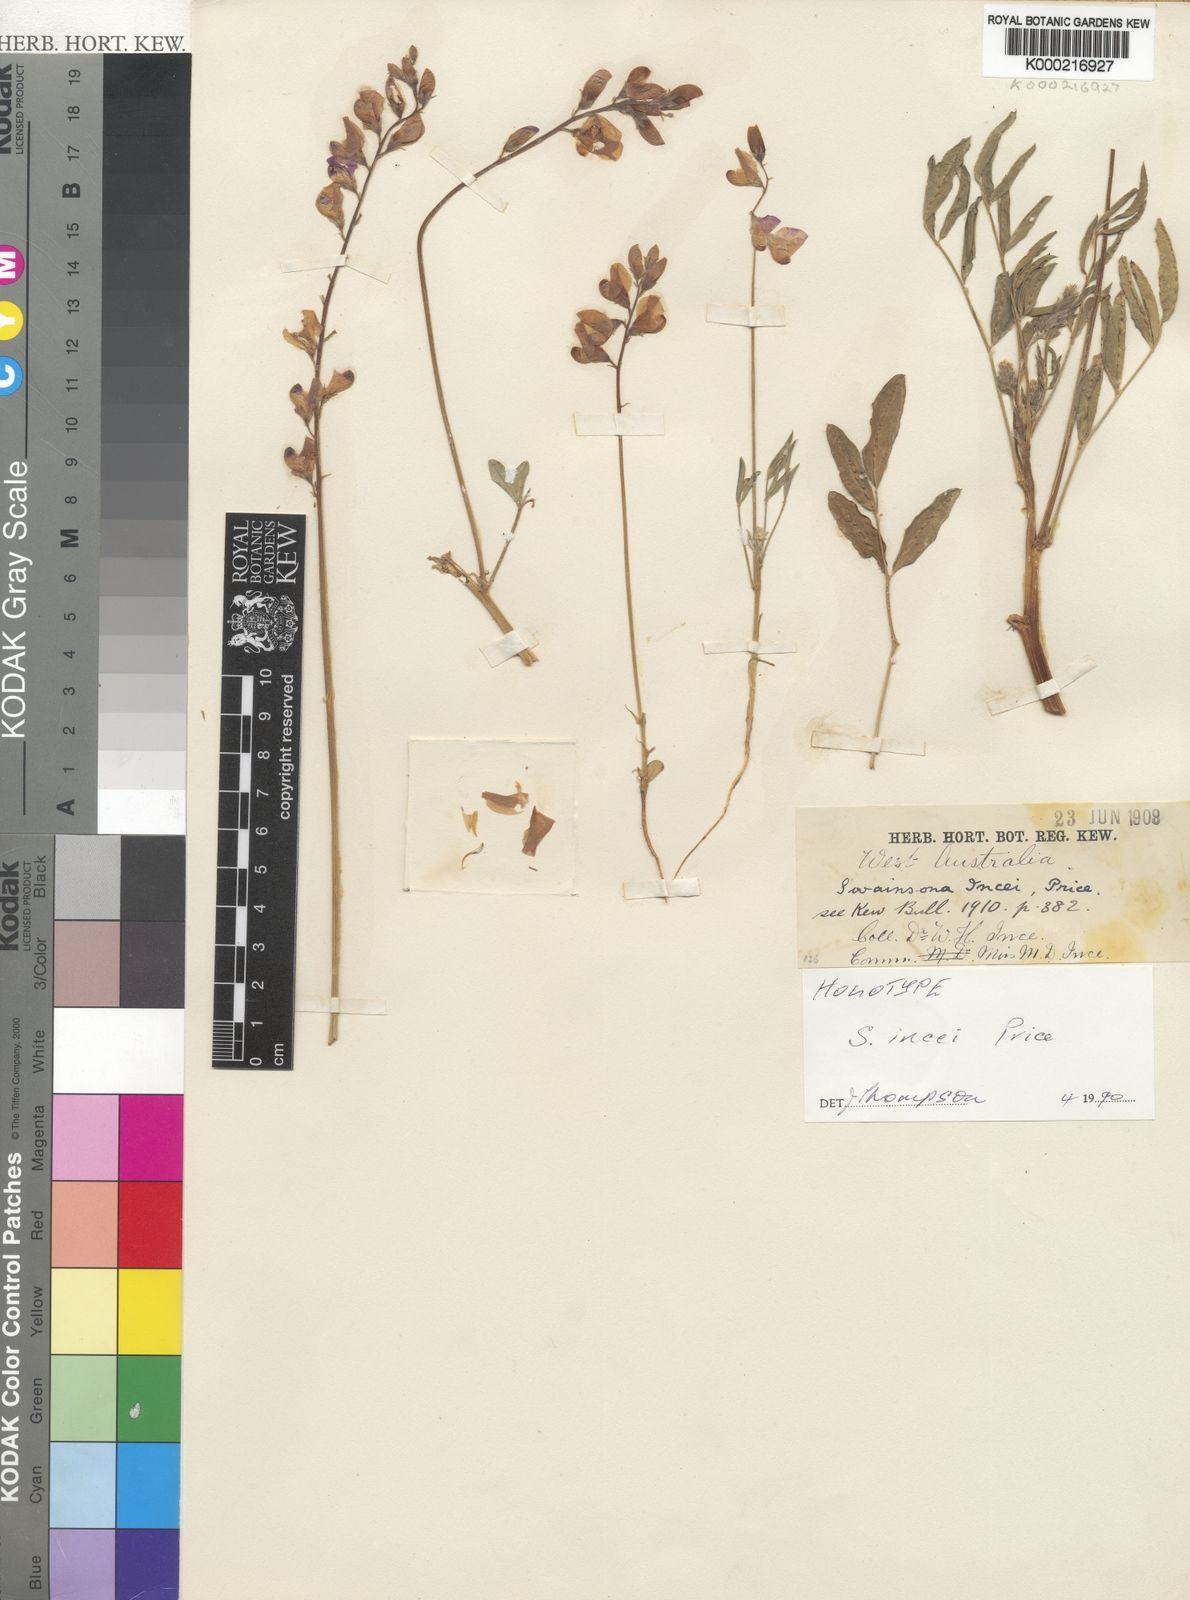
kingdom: Plantae
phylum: Tracheophyta
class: Magnoliopsida
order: Fabales
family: Fabaceae
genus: Swainsona
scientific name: Swainsona incei
